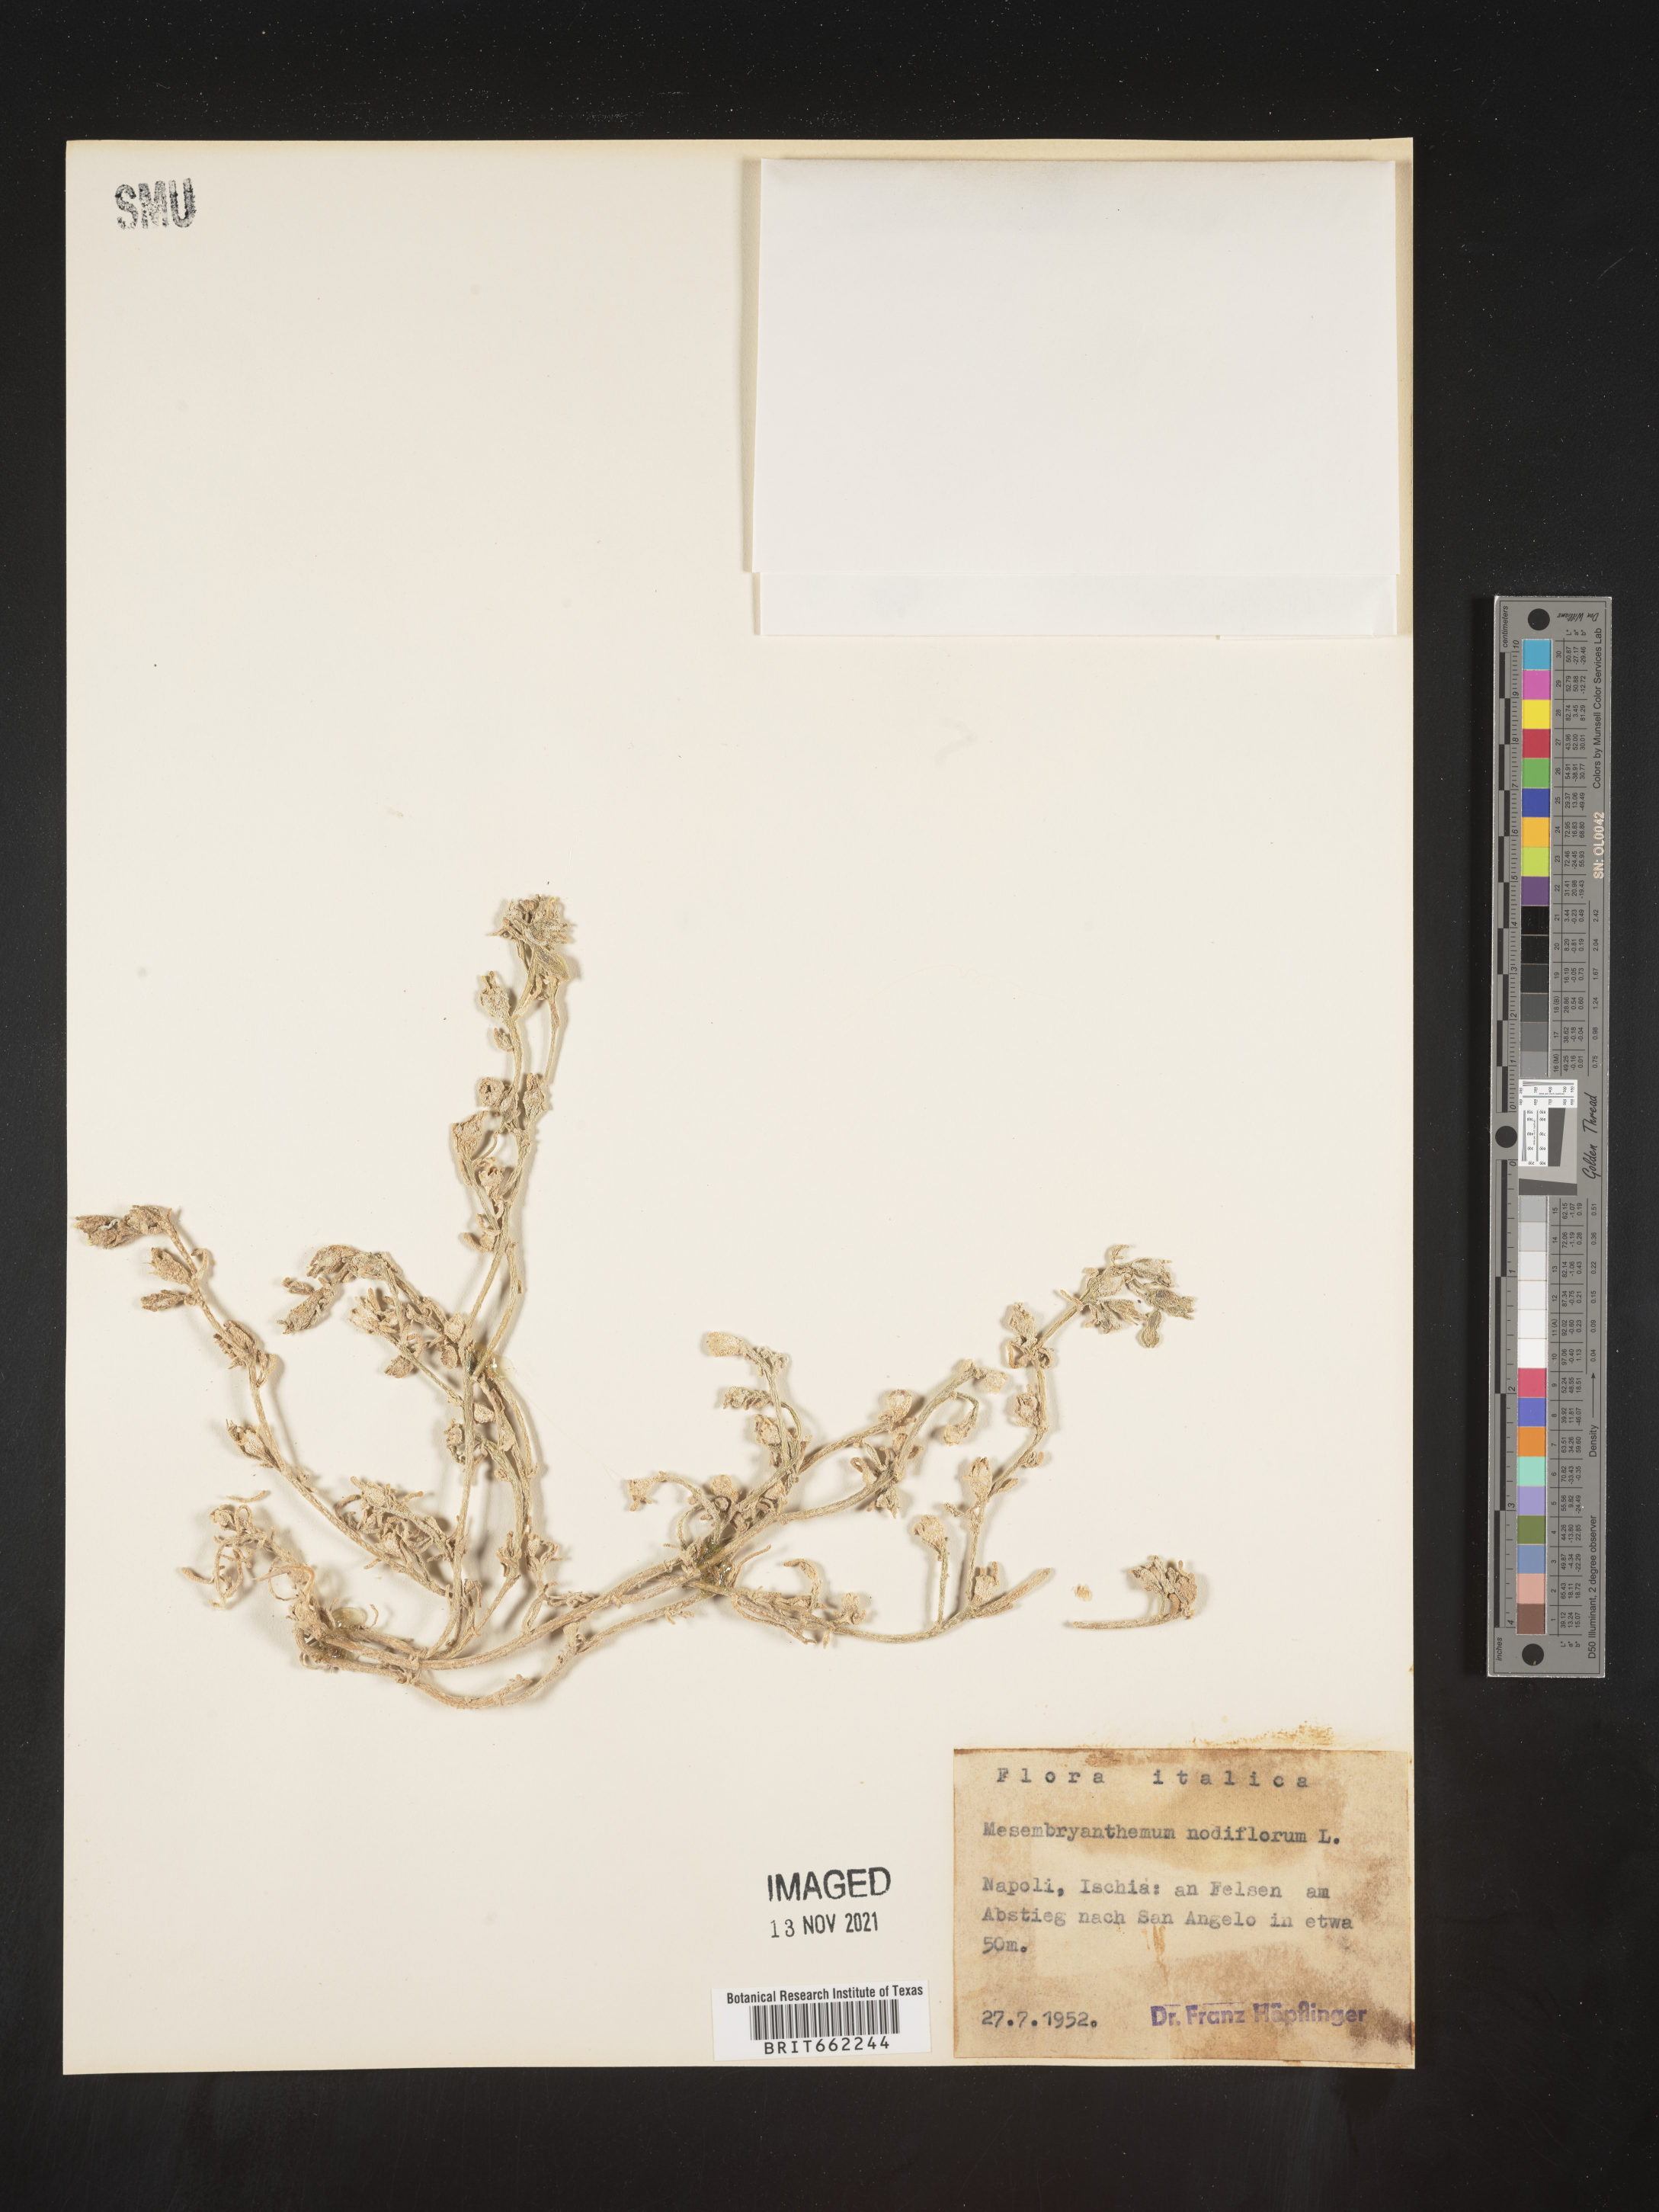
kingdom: Plantae
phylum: Tracheophyta
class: Magnoliopsida
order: Caryophyllales
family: Aizoaceae
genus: Mesembryanthemum
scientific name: Mesembryanthemum
